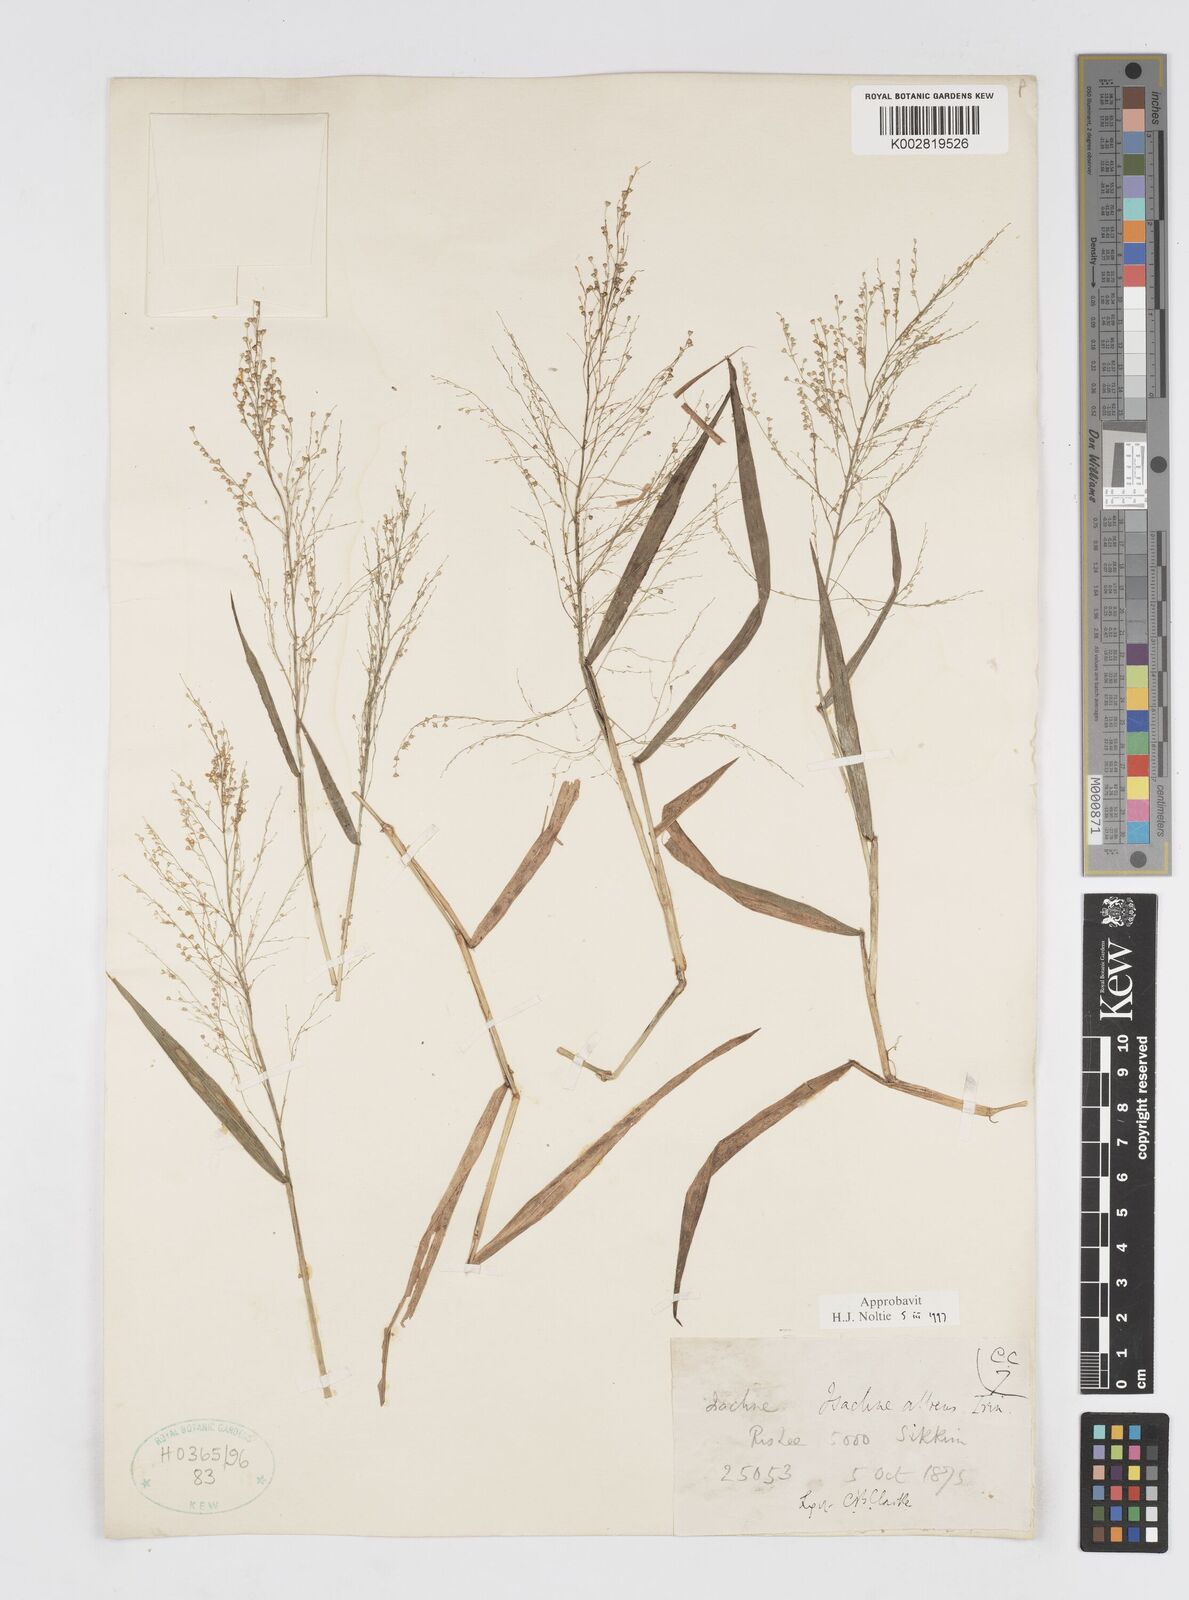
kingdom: Plantae
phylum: Tracheophyta
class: Liliopsida
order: Poales
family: Poaceae
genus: Isachne
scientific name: Isachne albens
